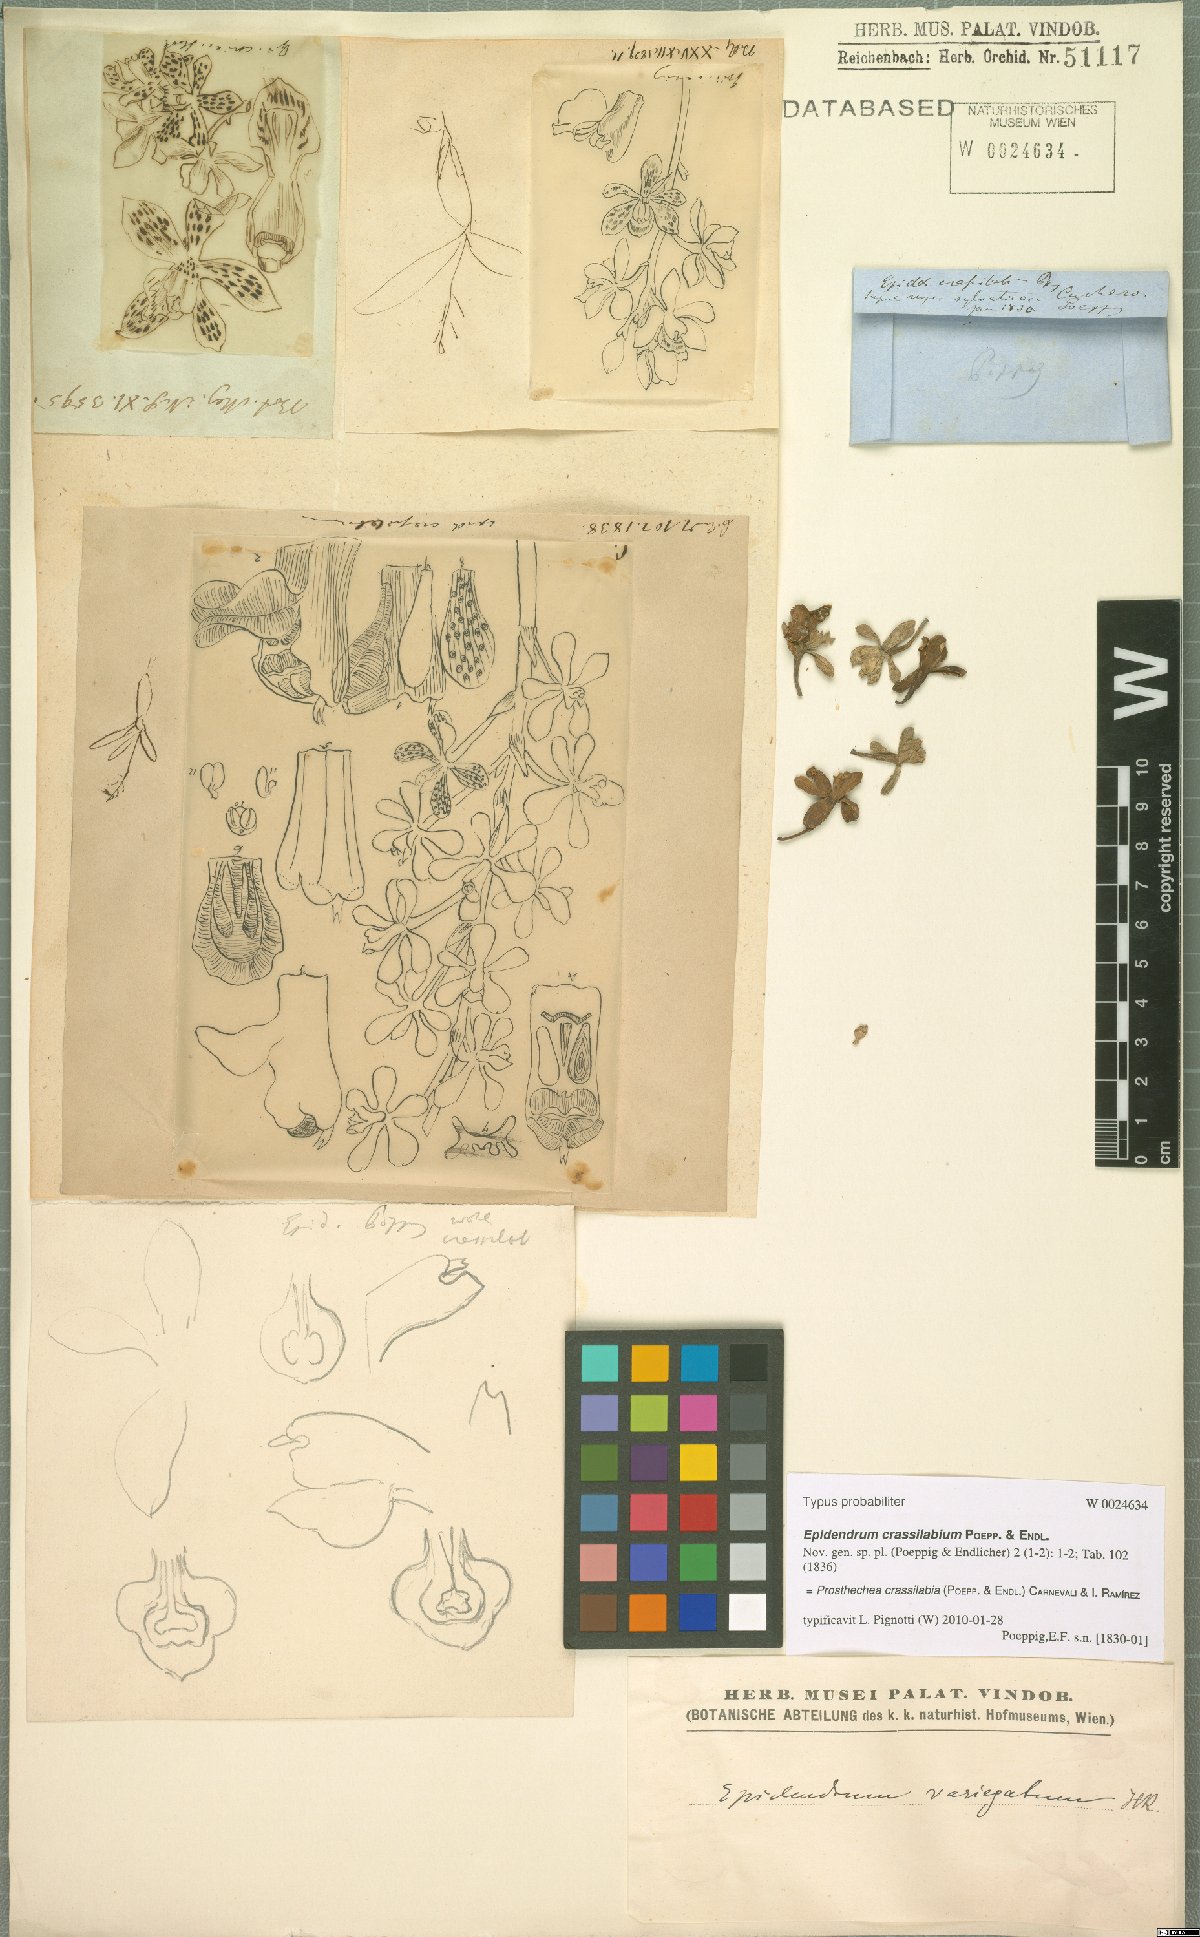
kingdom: Plantae
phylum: Tracheophyta
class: Liliopsida
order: Asparagales
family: Orchidaceae
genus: Prosthechea
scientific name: Prosthechea crassilabia
